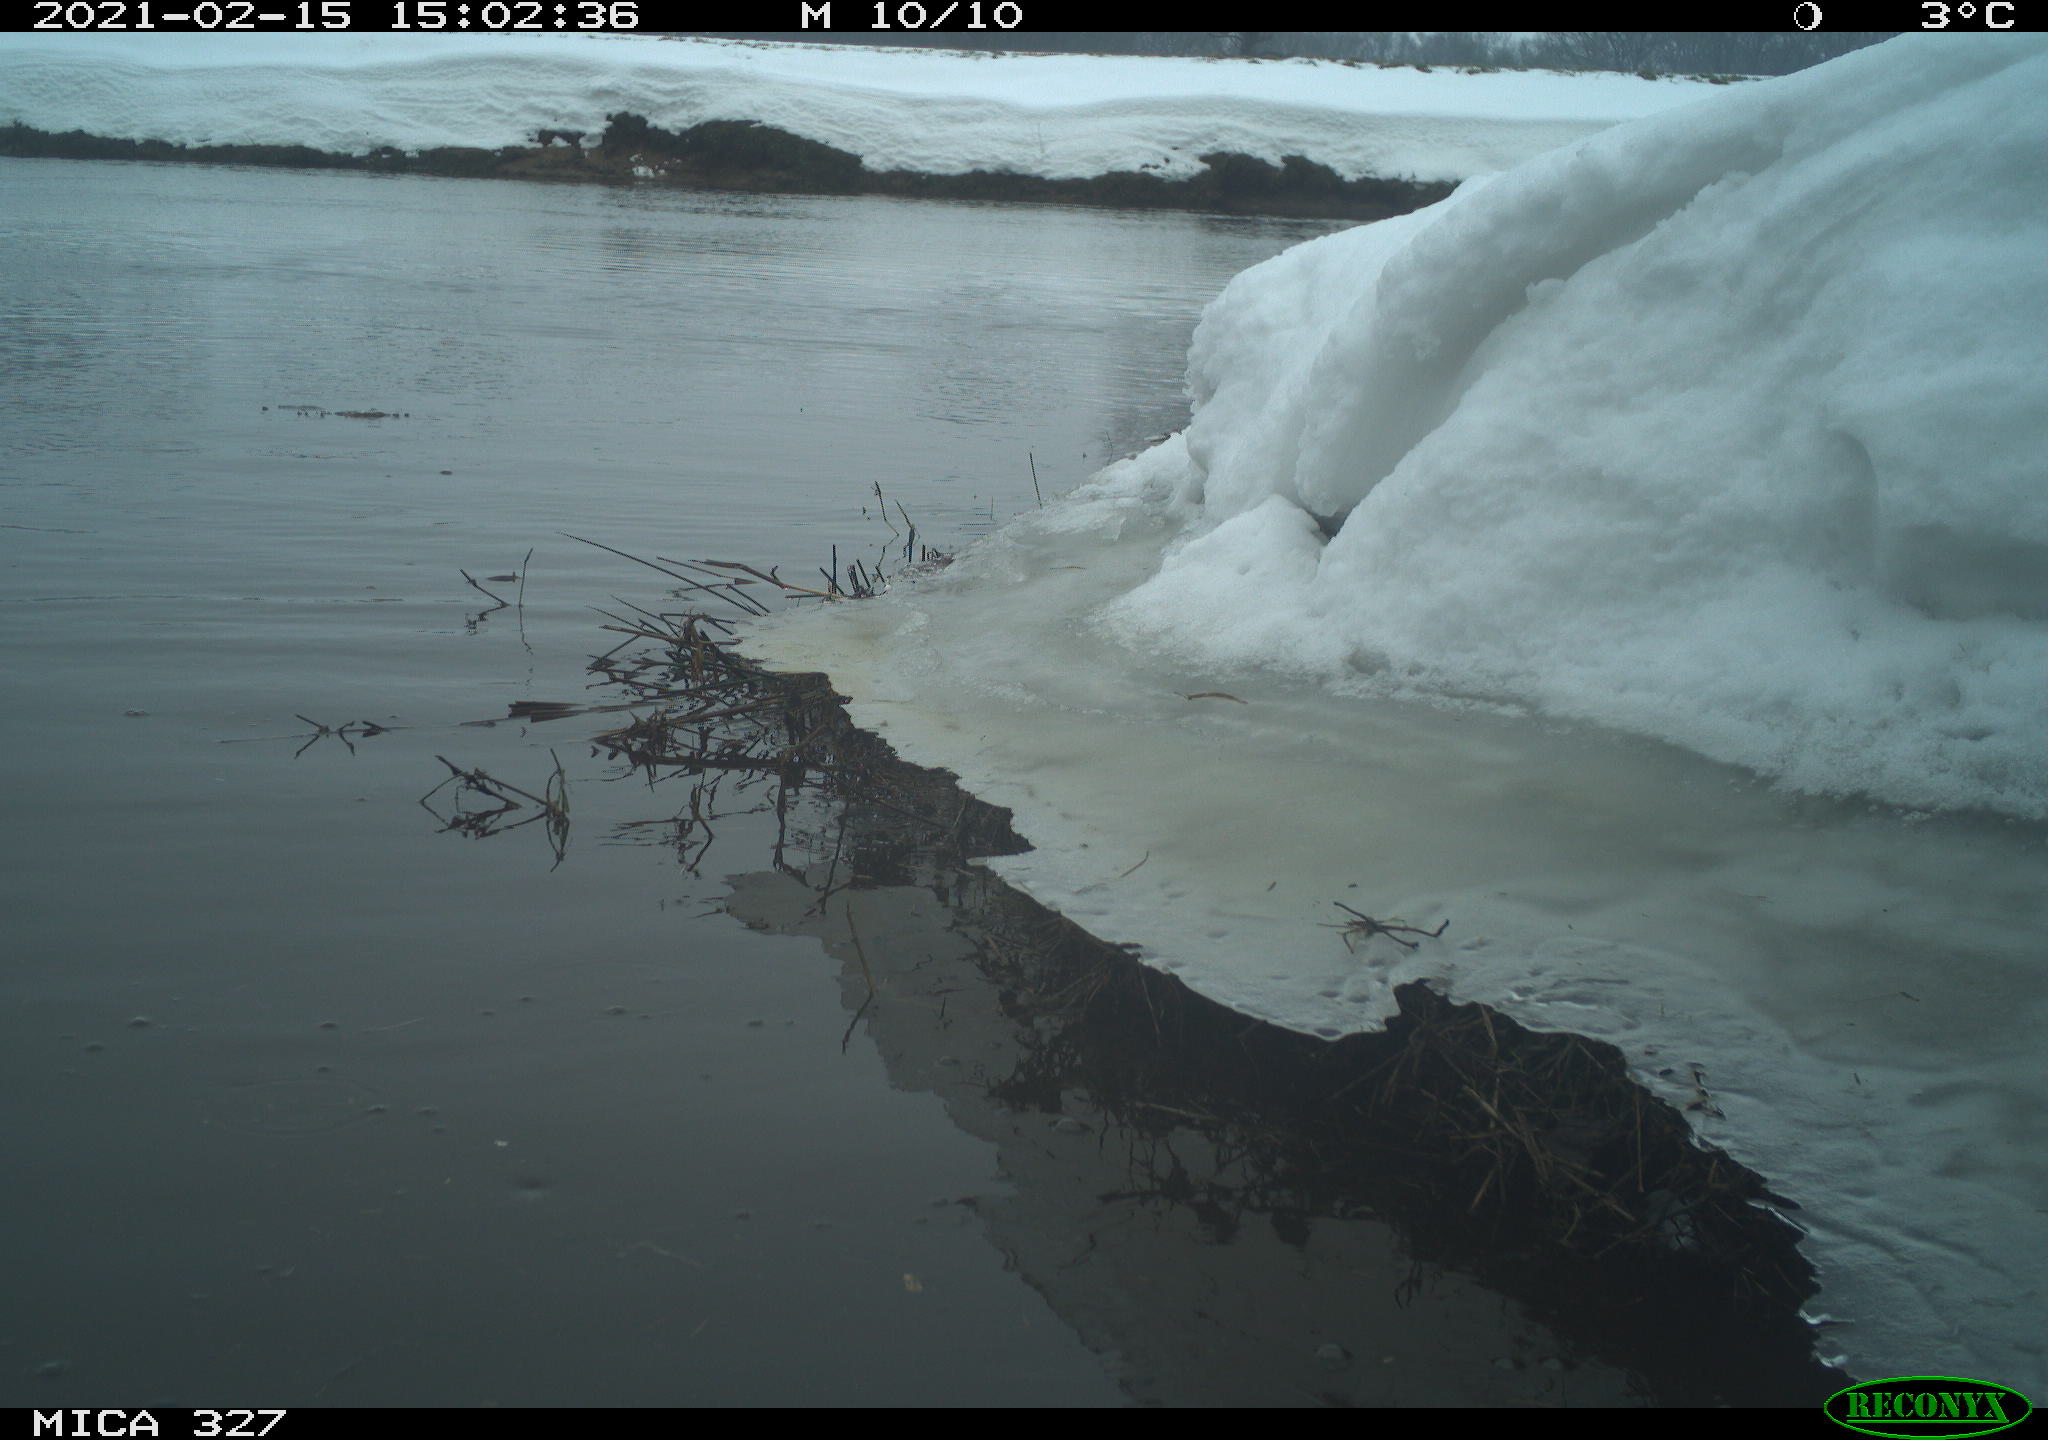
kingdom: Animalia
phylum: Chordata
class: Aves
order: Suliformes
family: Phalacrocoracidae
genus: Phalacrocorax
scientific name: Phalacrocorax carbo
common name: Great cormorant
